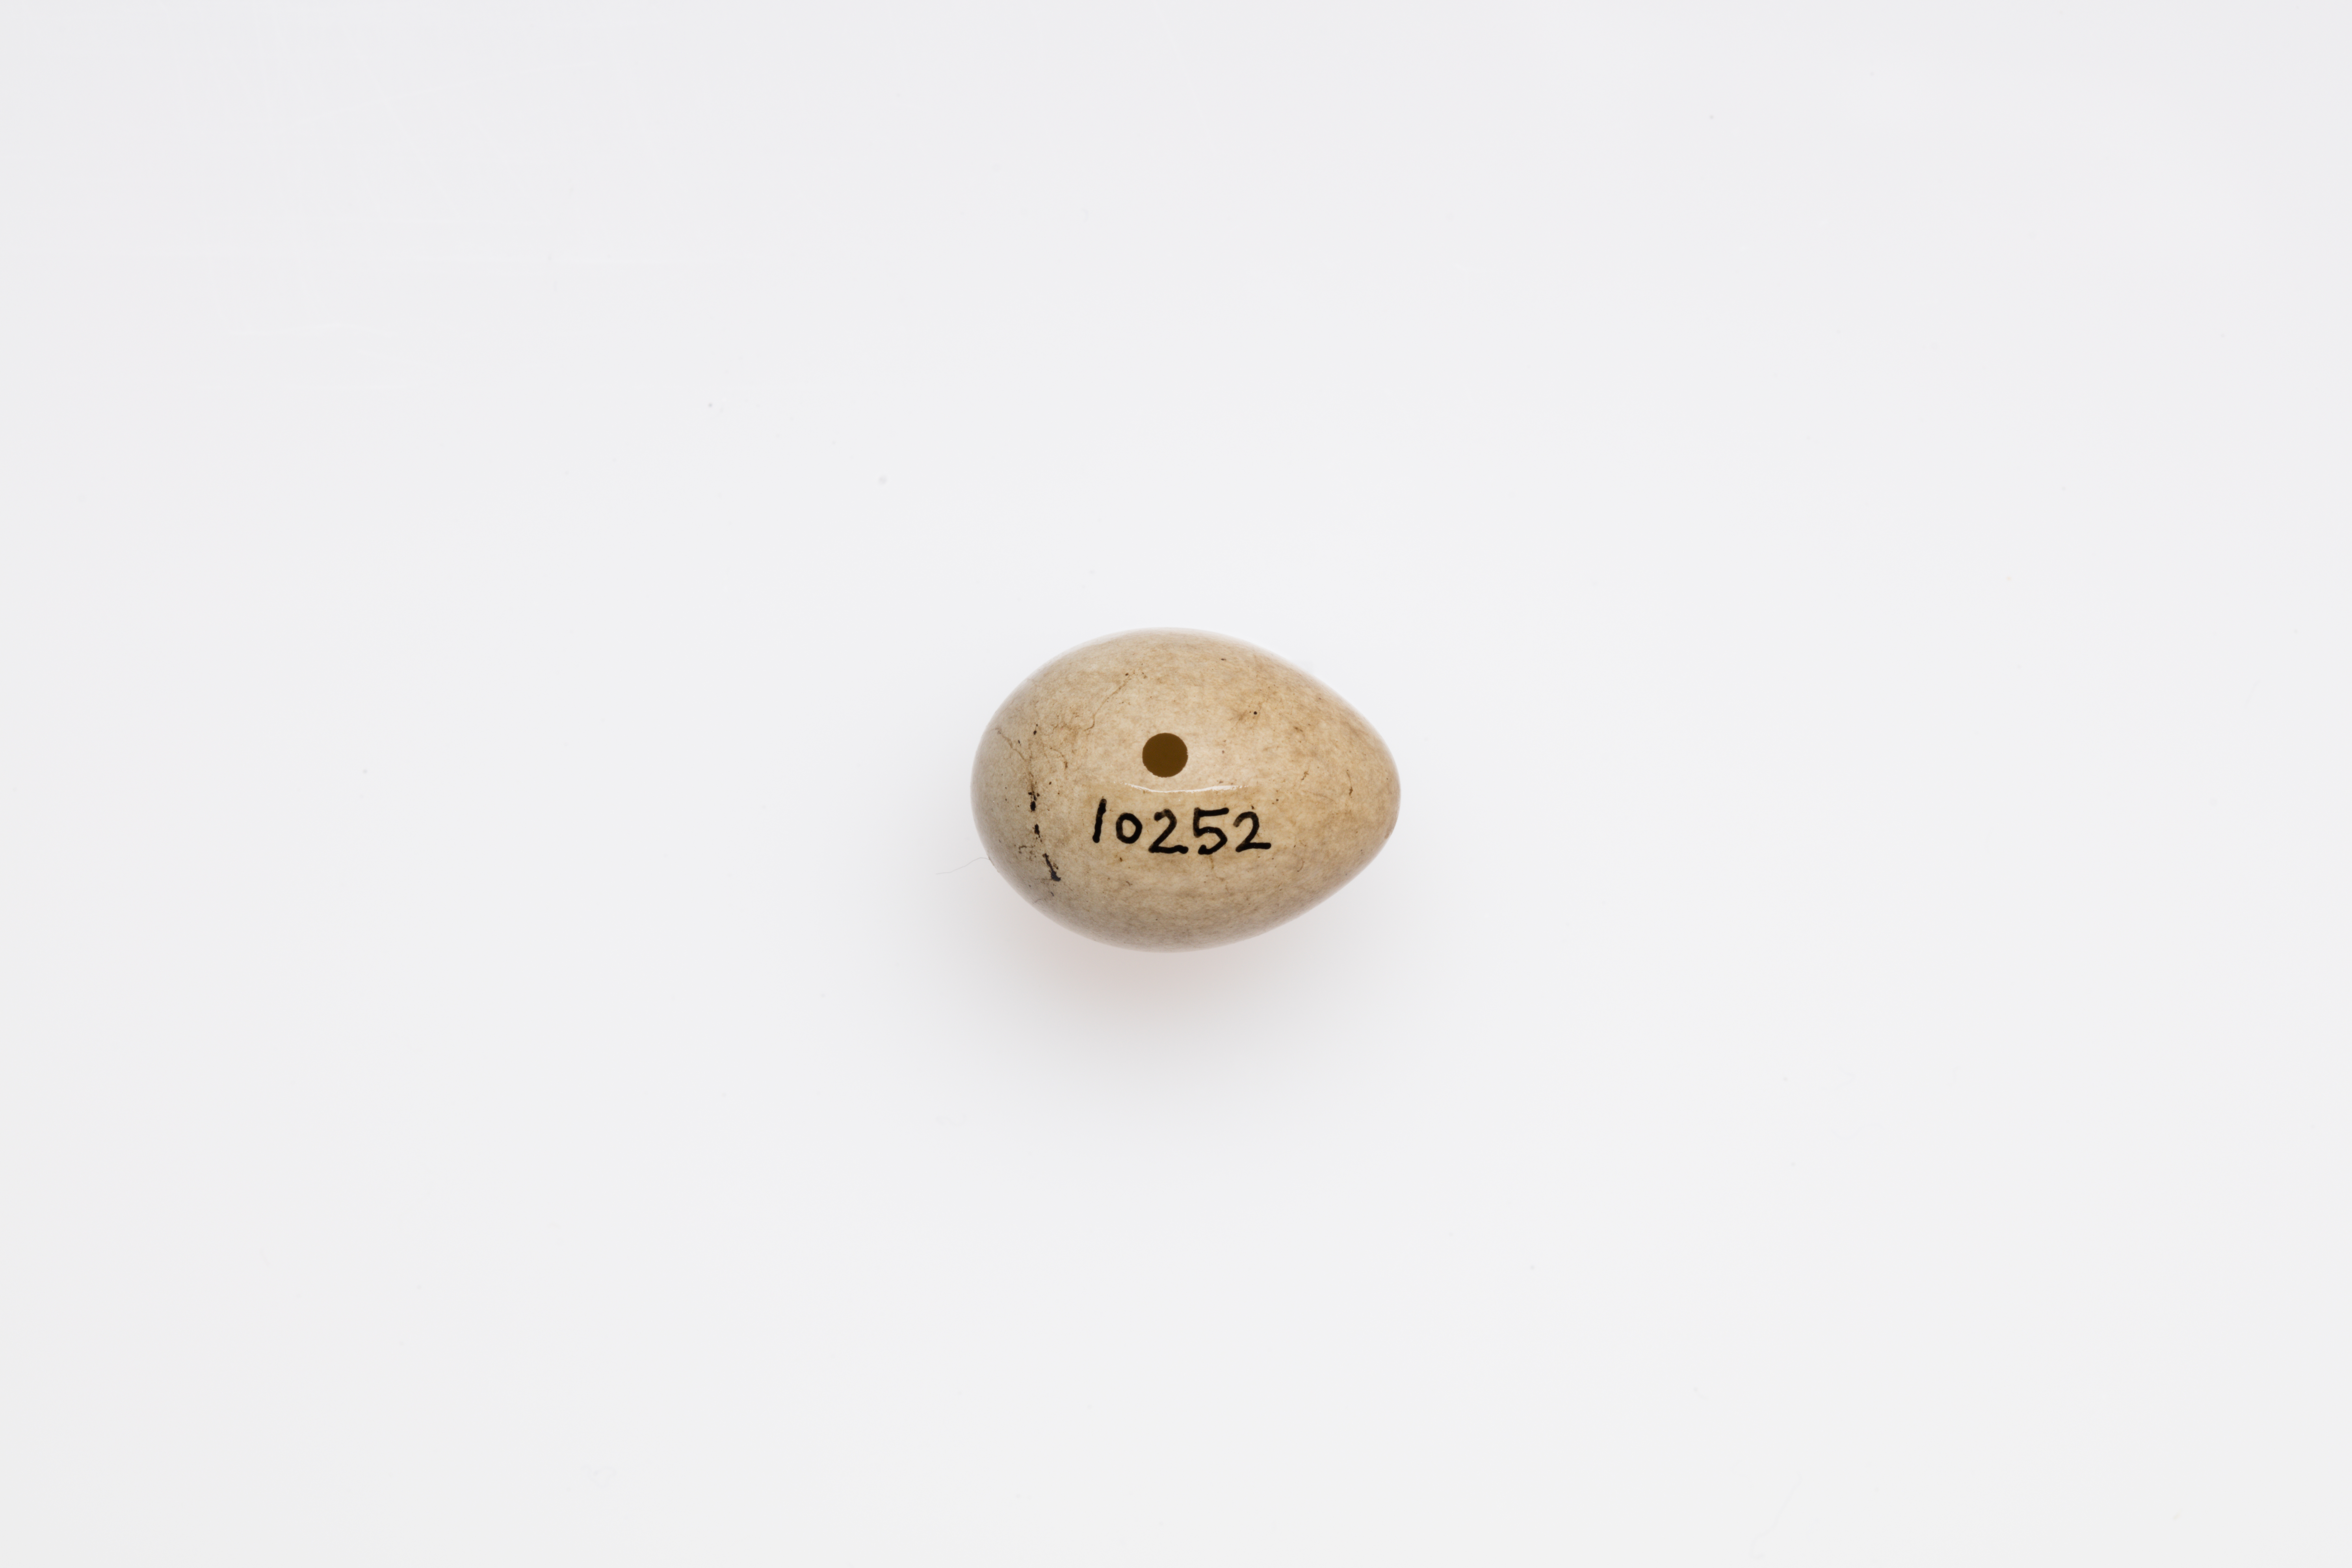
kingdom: Animalia
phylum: Chordata
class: Aves
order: Passeriformes
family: Acrocephalidae
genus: Acrocephalus
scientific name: Acrocephalus schoenobaenus
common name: Sedge warbler
